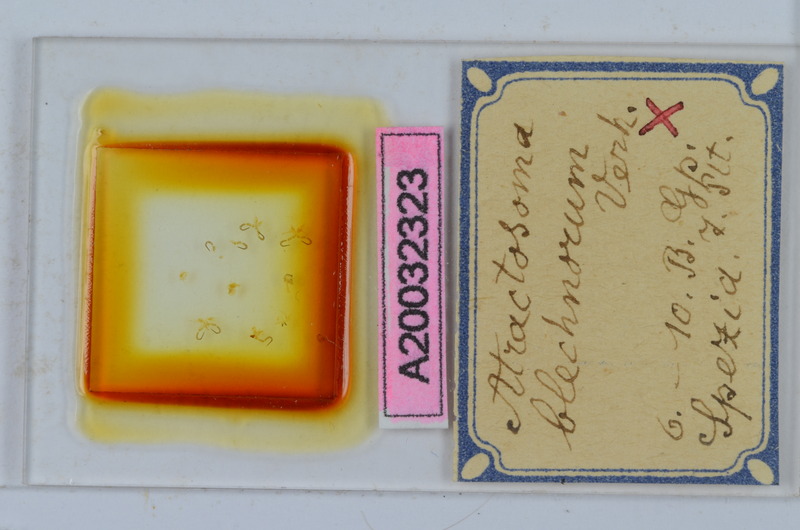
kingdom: Animalia
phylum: Arthropoda
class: Diplopoda
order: Chordeumatida
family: Craspedosomatidae
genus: Atractosoma
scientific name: Atractosoma blechnorum
